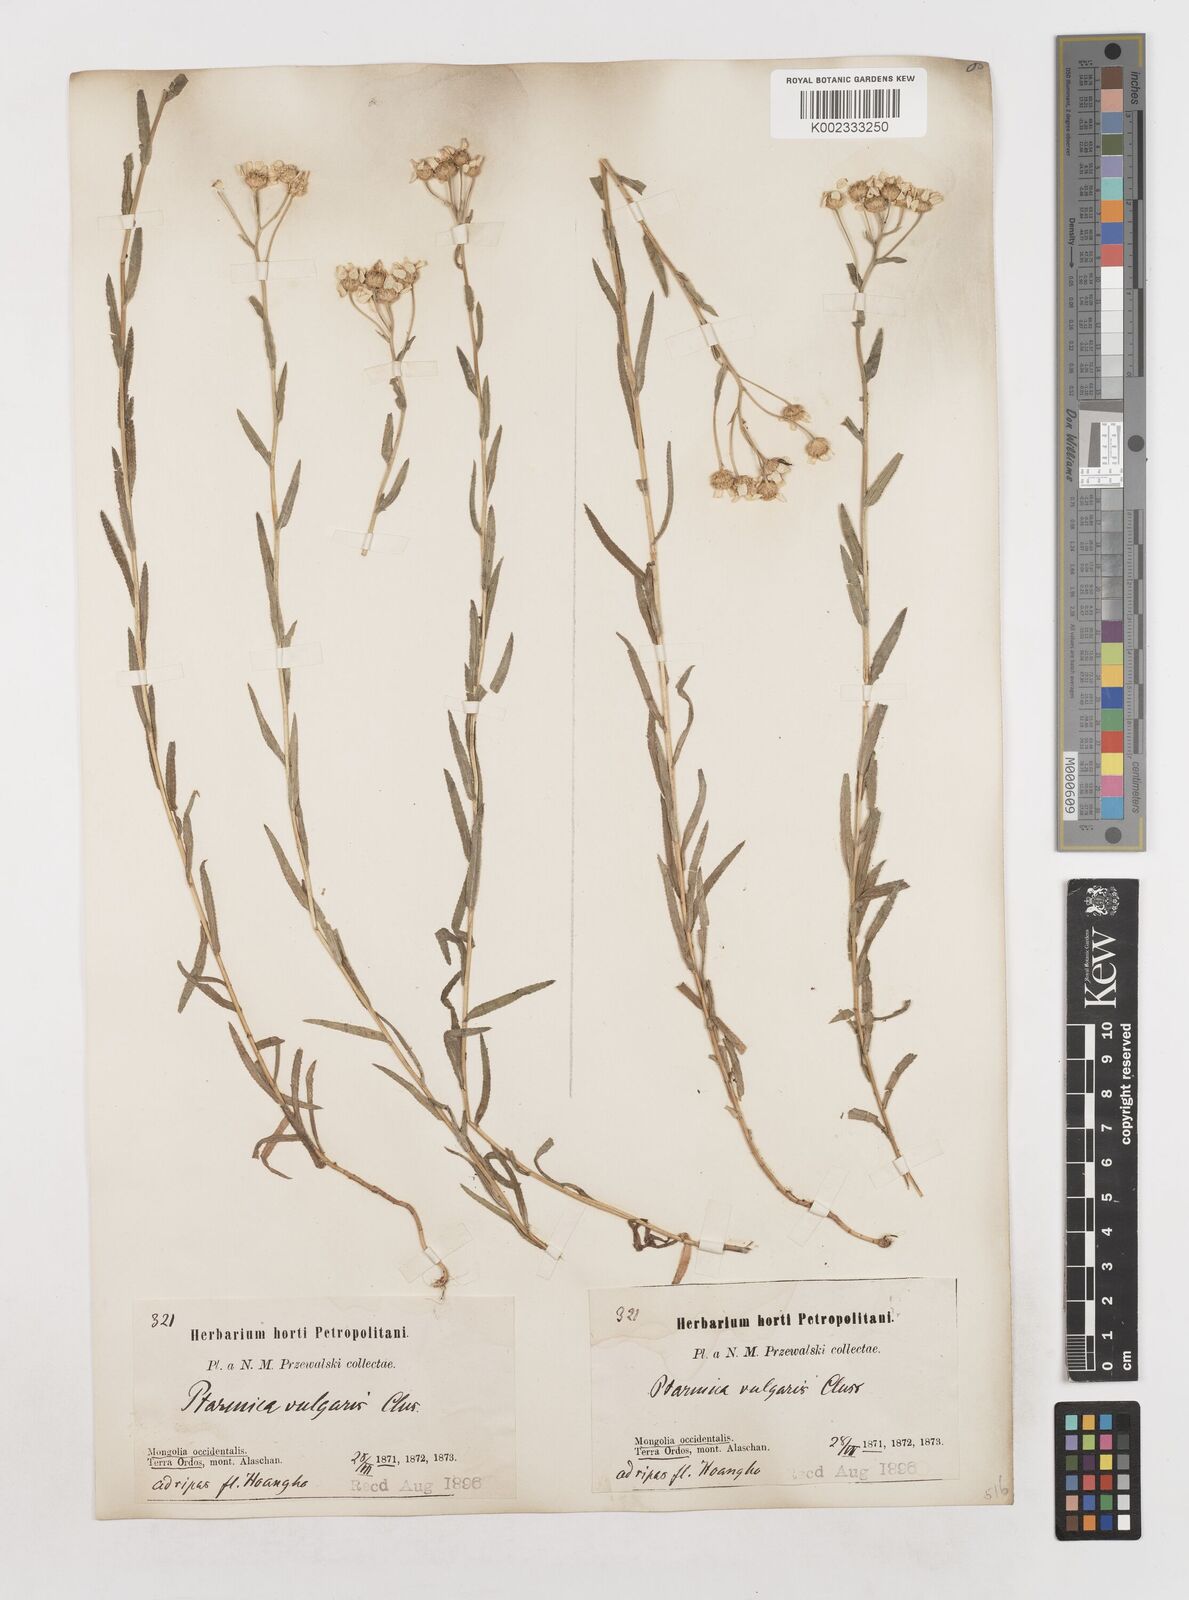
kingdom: Plantae
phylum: Tracheophyta
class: Magnoliopsida
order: Asterales
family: Asteraceae
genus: Achillea
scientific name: Achillea
